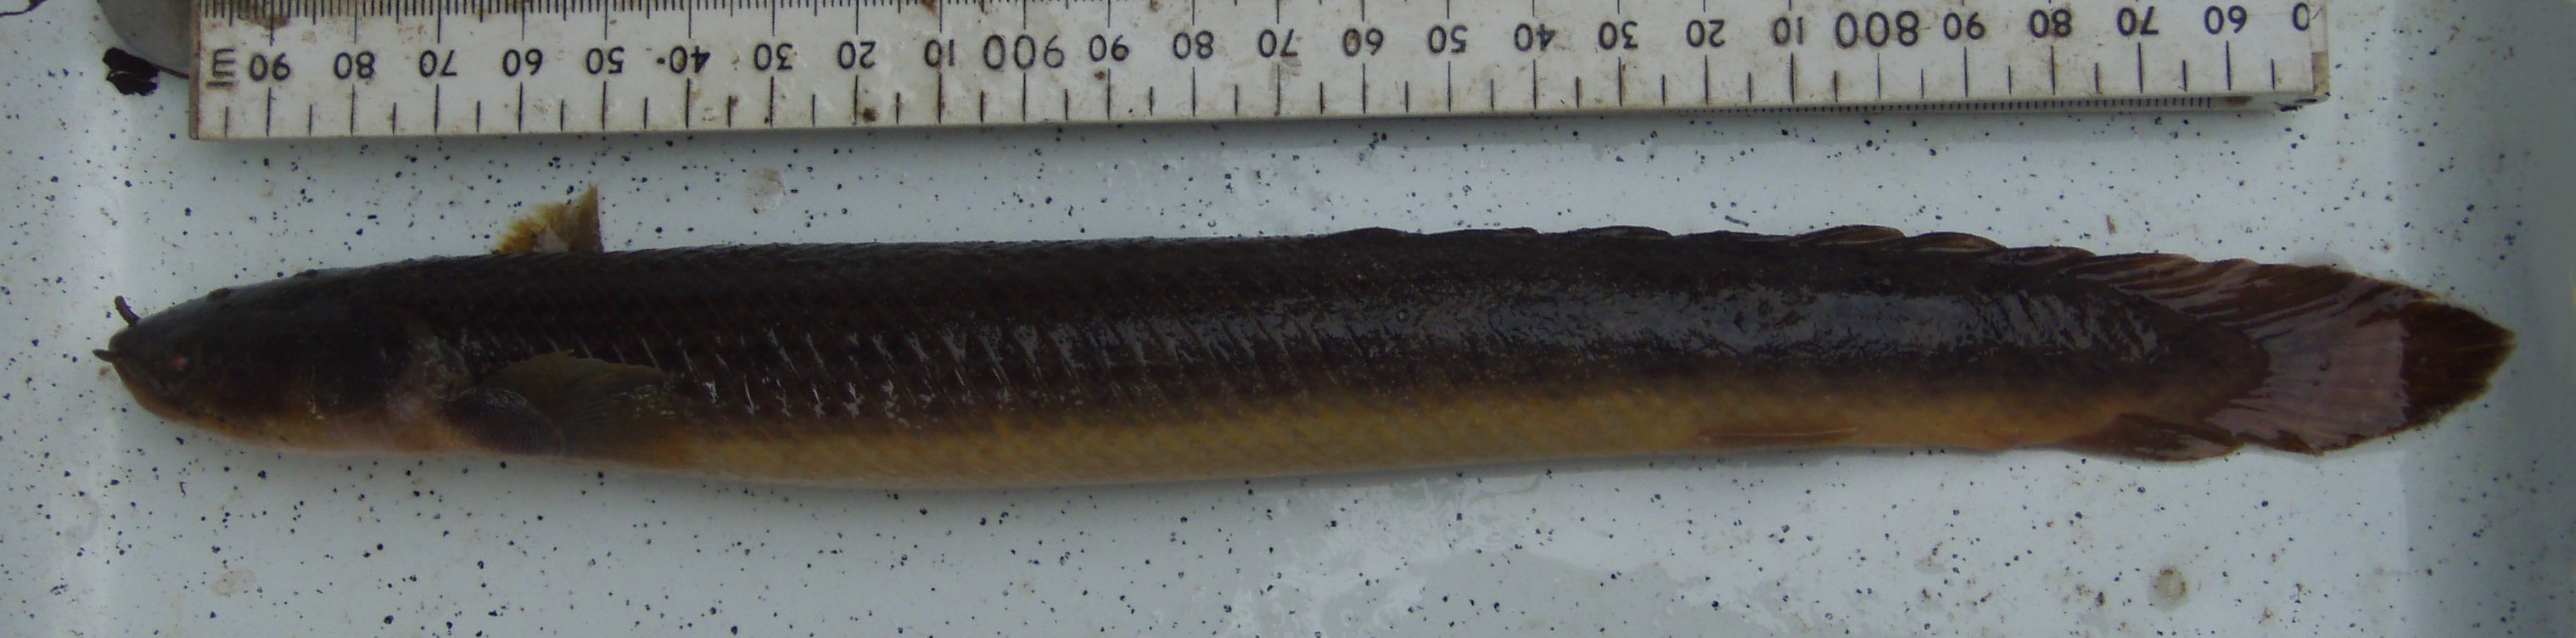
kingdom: Animalia
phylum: Chordata
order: Polypteriformes
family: Polypteridae
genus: Polypterus
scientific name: Polypterus congicus
